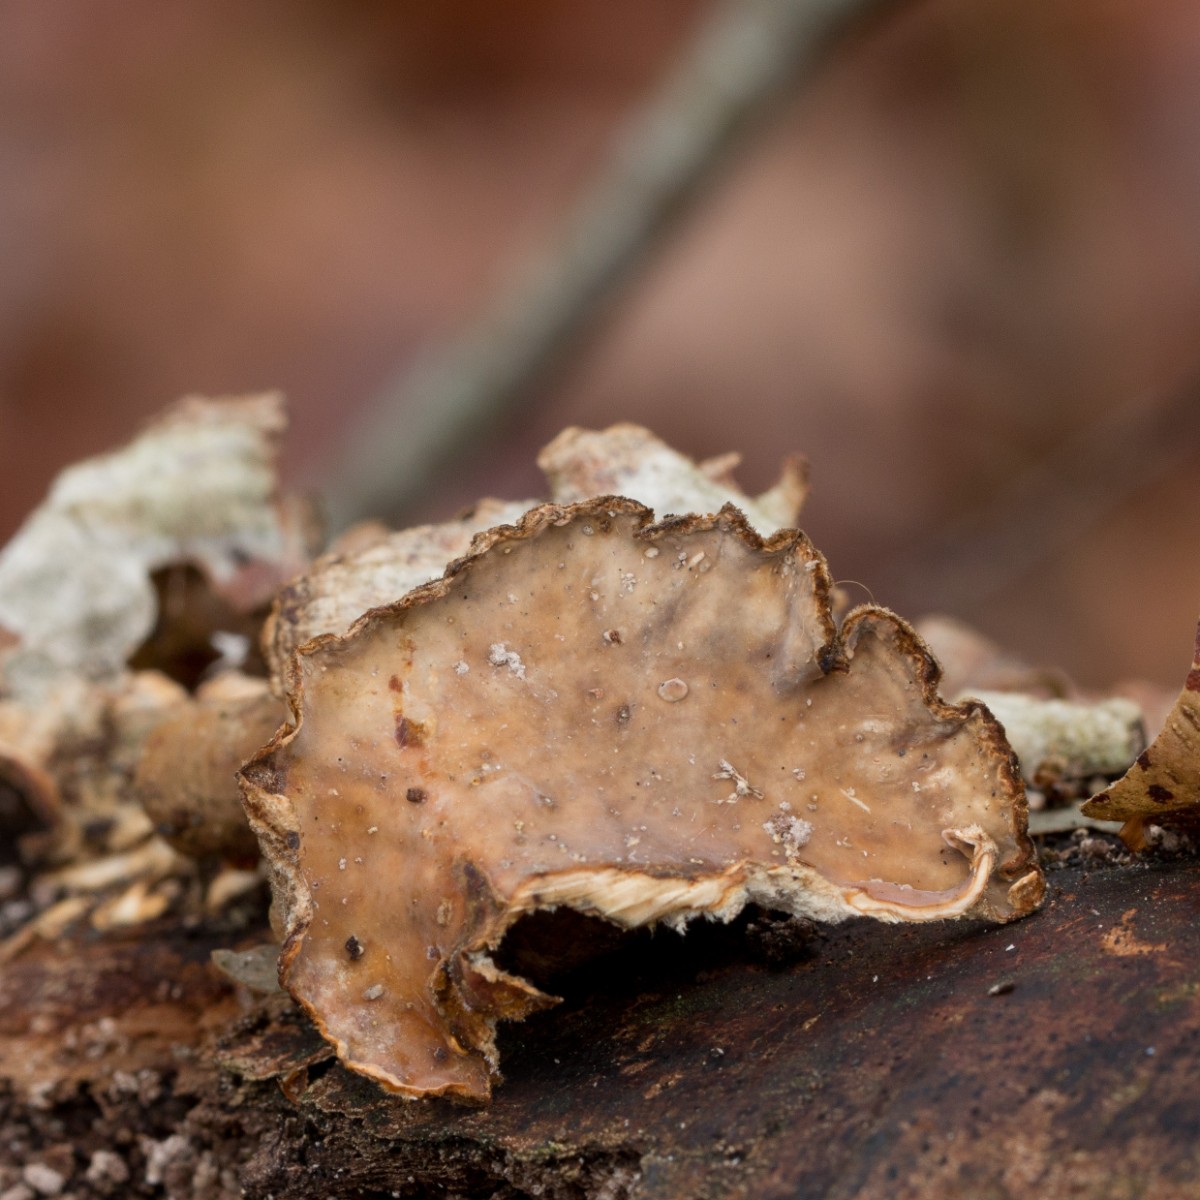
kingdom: Fungi
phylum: Basidiomycota
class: Agaricomycetes
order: Russulales
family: Stereaceae
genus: Stereum
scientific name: Stereum hirsutum
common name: håret lædersvamp
